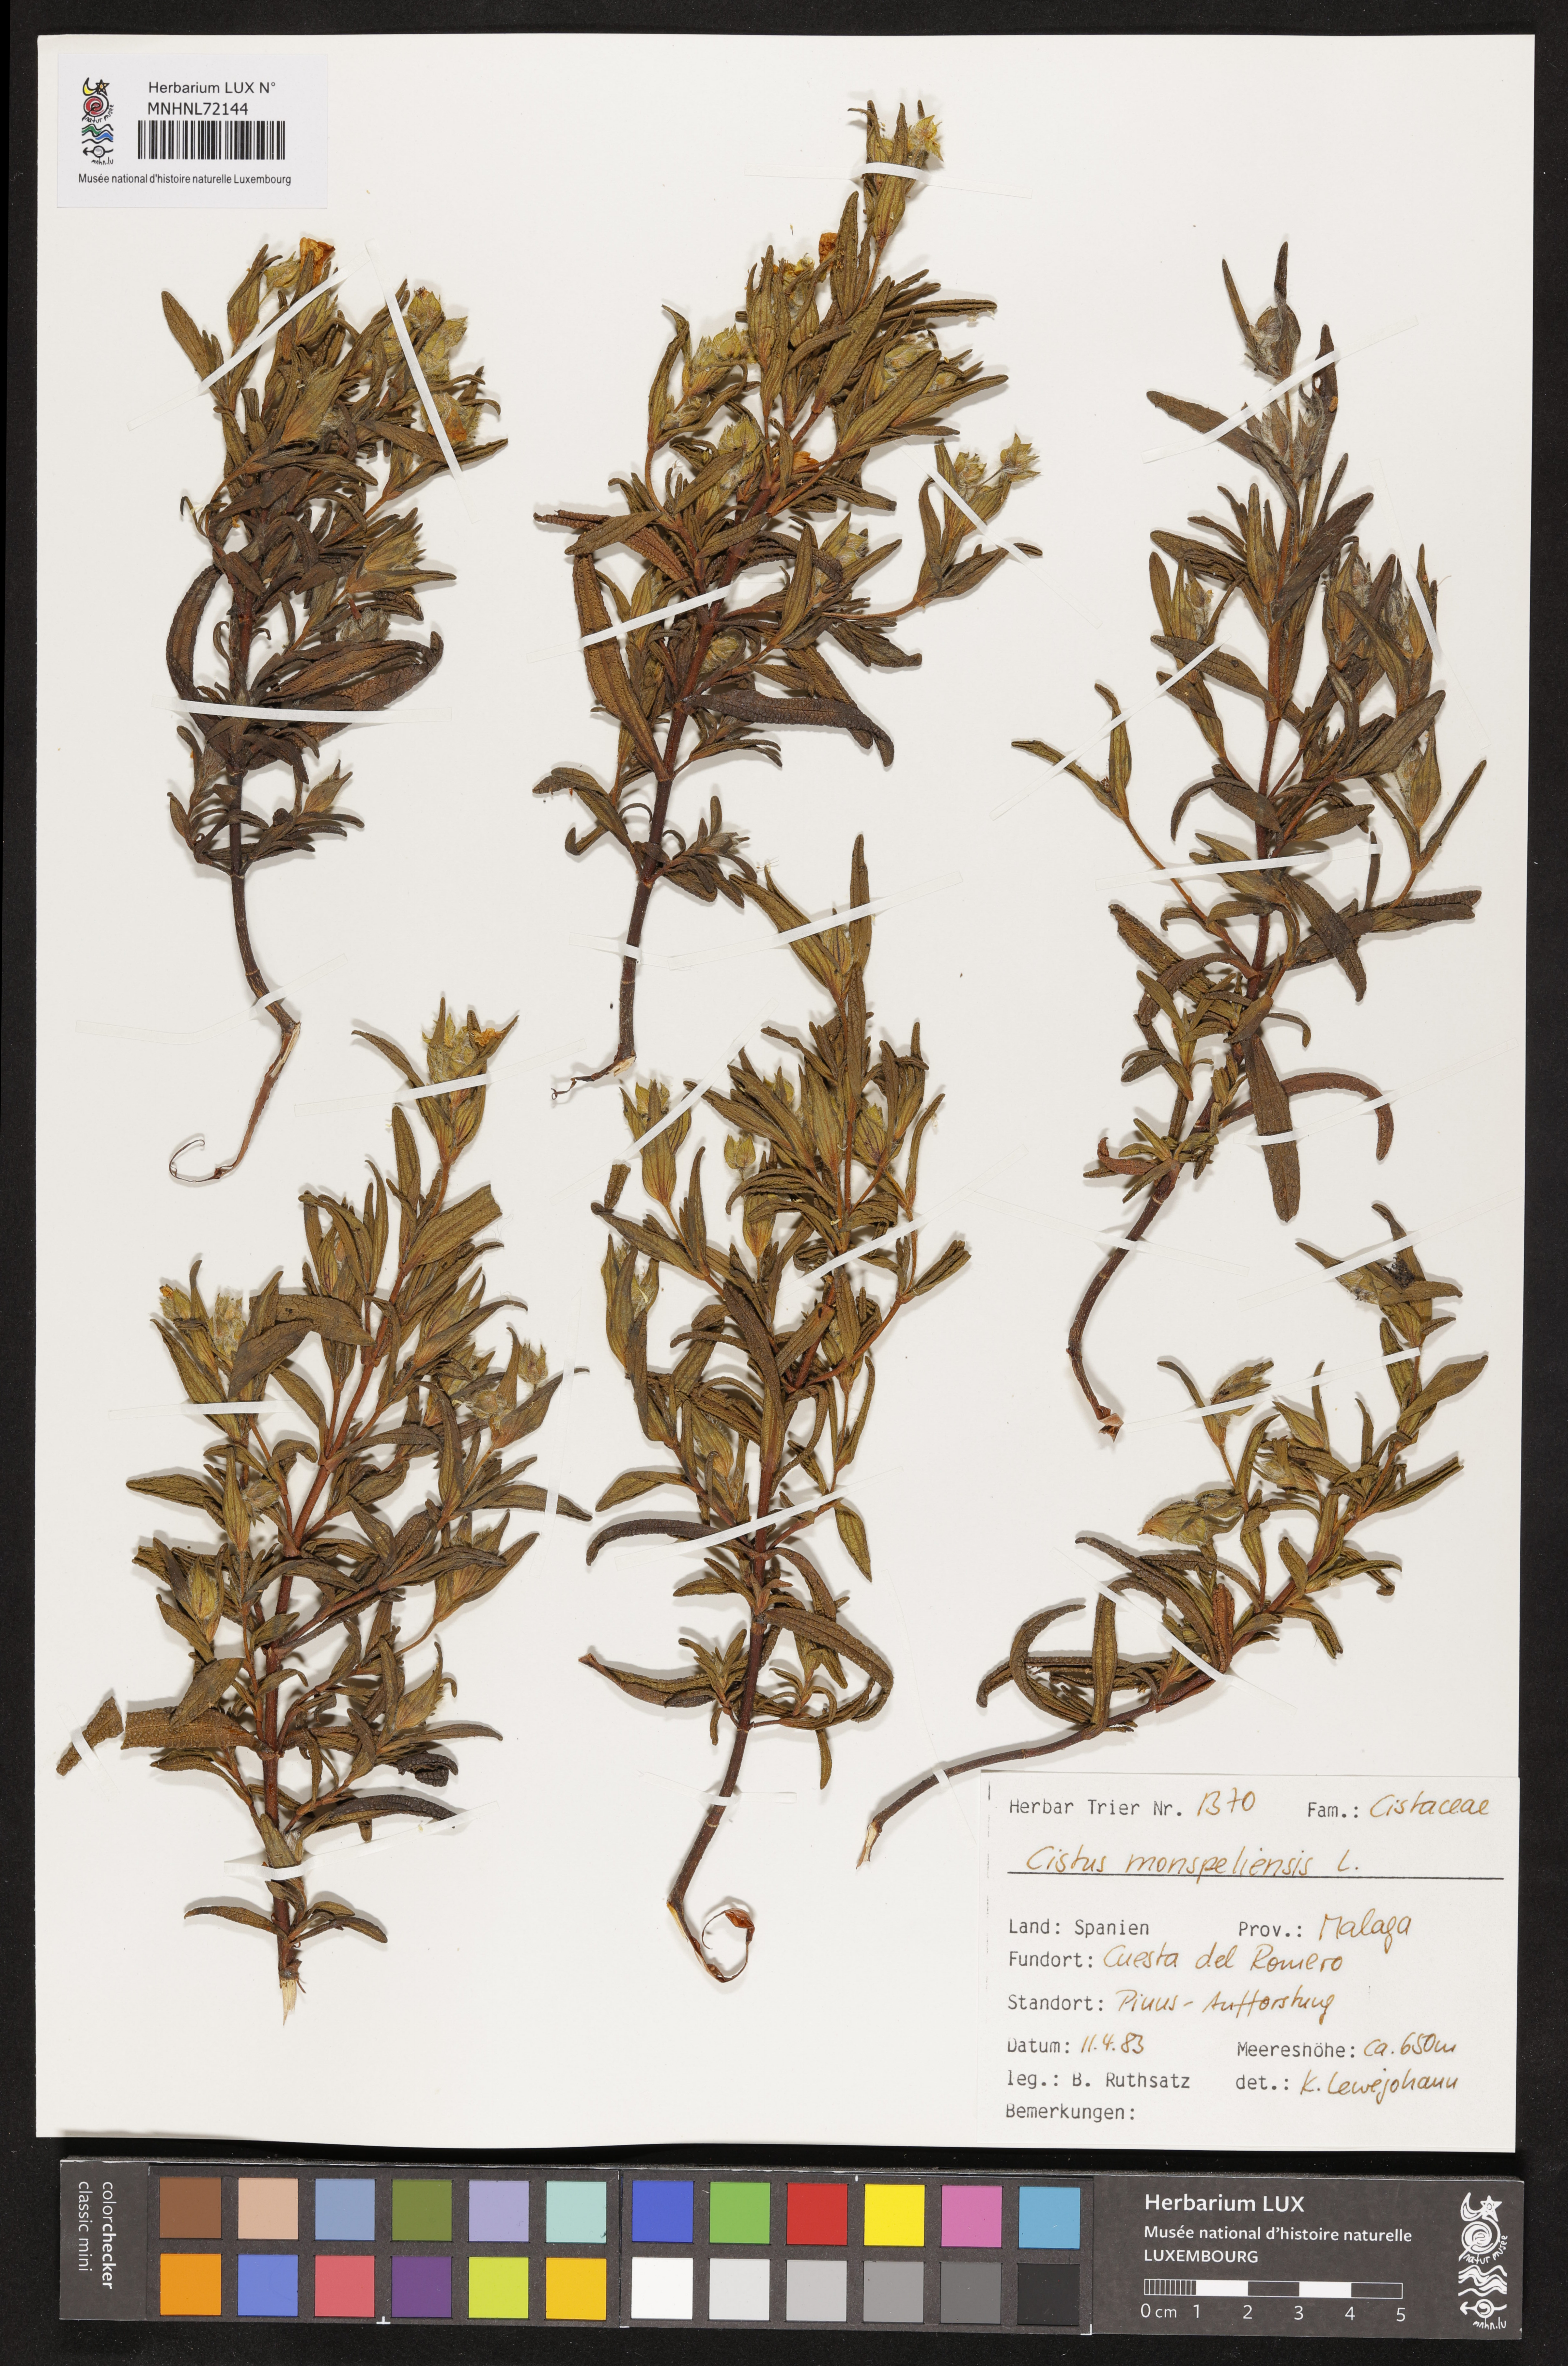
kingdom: Plantae
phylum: Tracheophyta
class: Magnoliopsida
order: Malvales
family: Cistaceae
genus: Cistus
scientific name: Cistus monspeliensis
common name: Montpelier cistus
